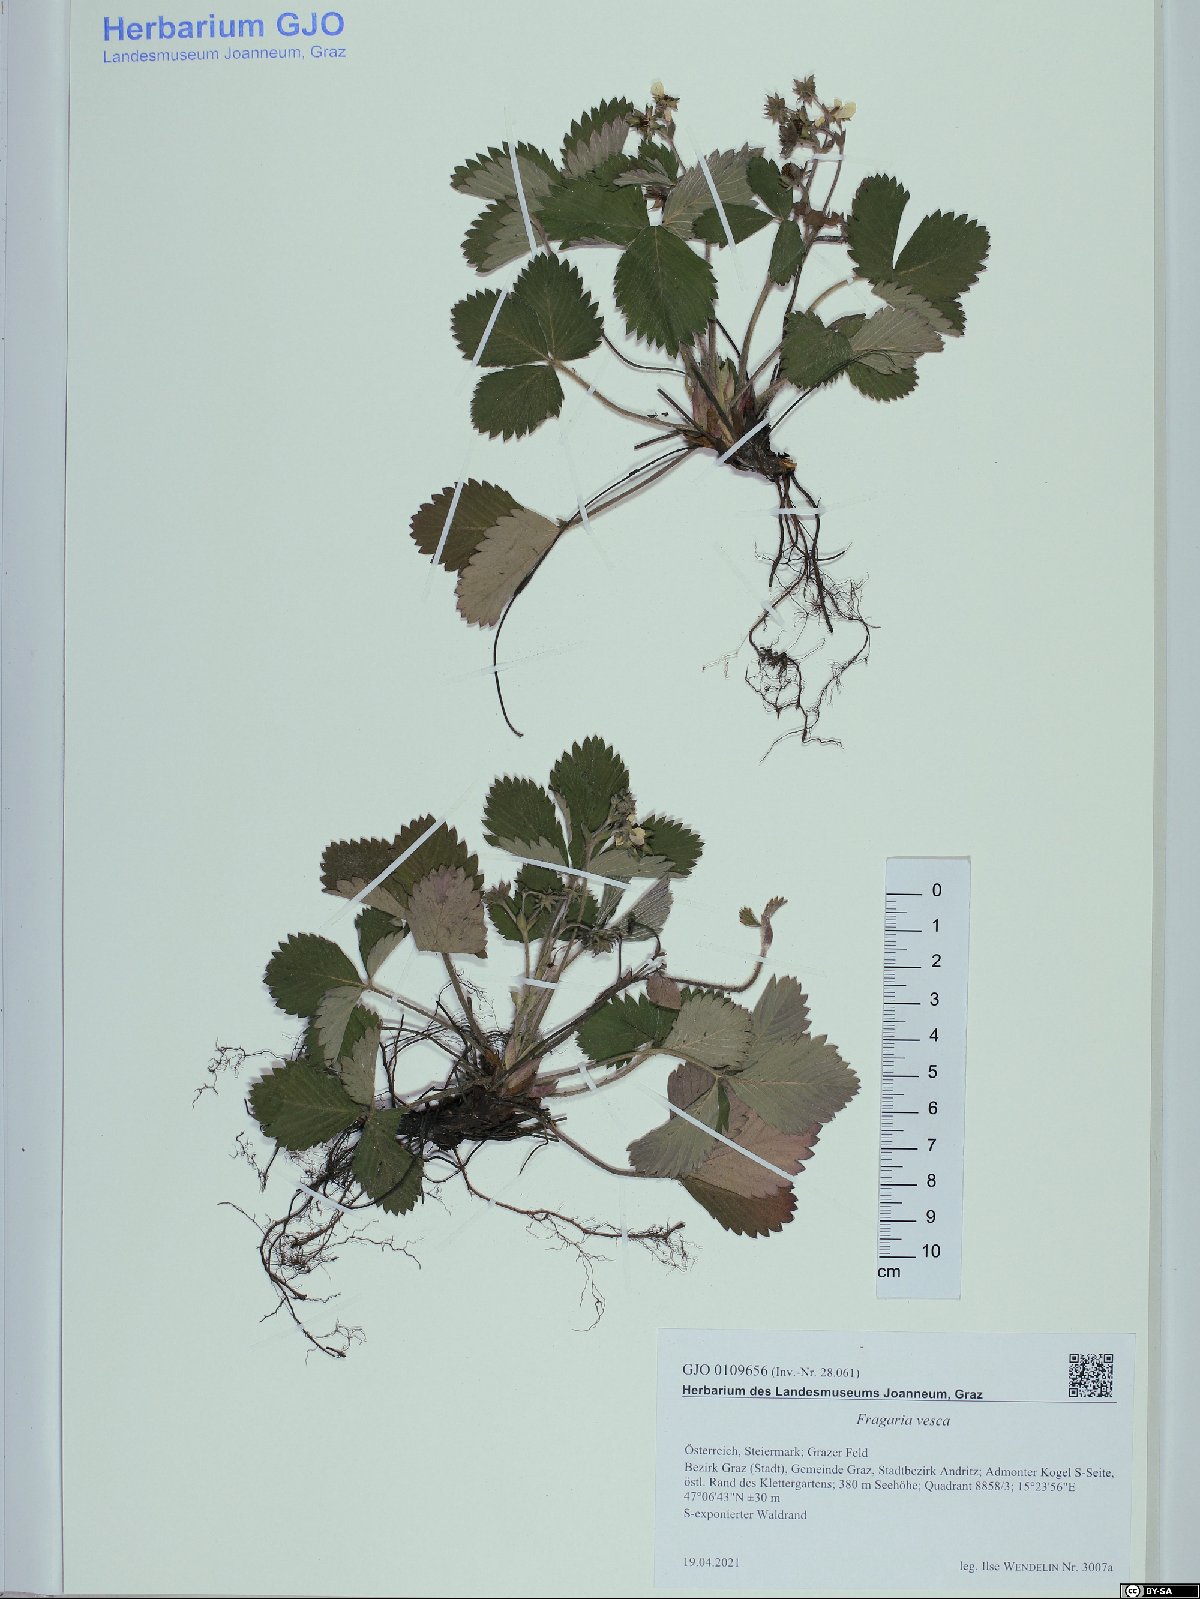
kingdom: Plantae
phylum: Tracheophyta
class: Magnoliopsida
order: Rosales
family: Rosaceae
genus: Fragaria
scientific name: Fragaria vesca
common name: Wild strawberry
